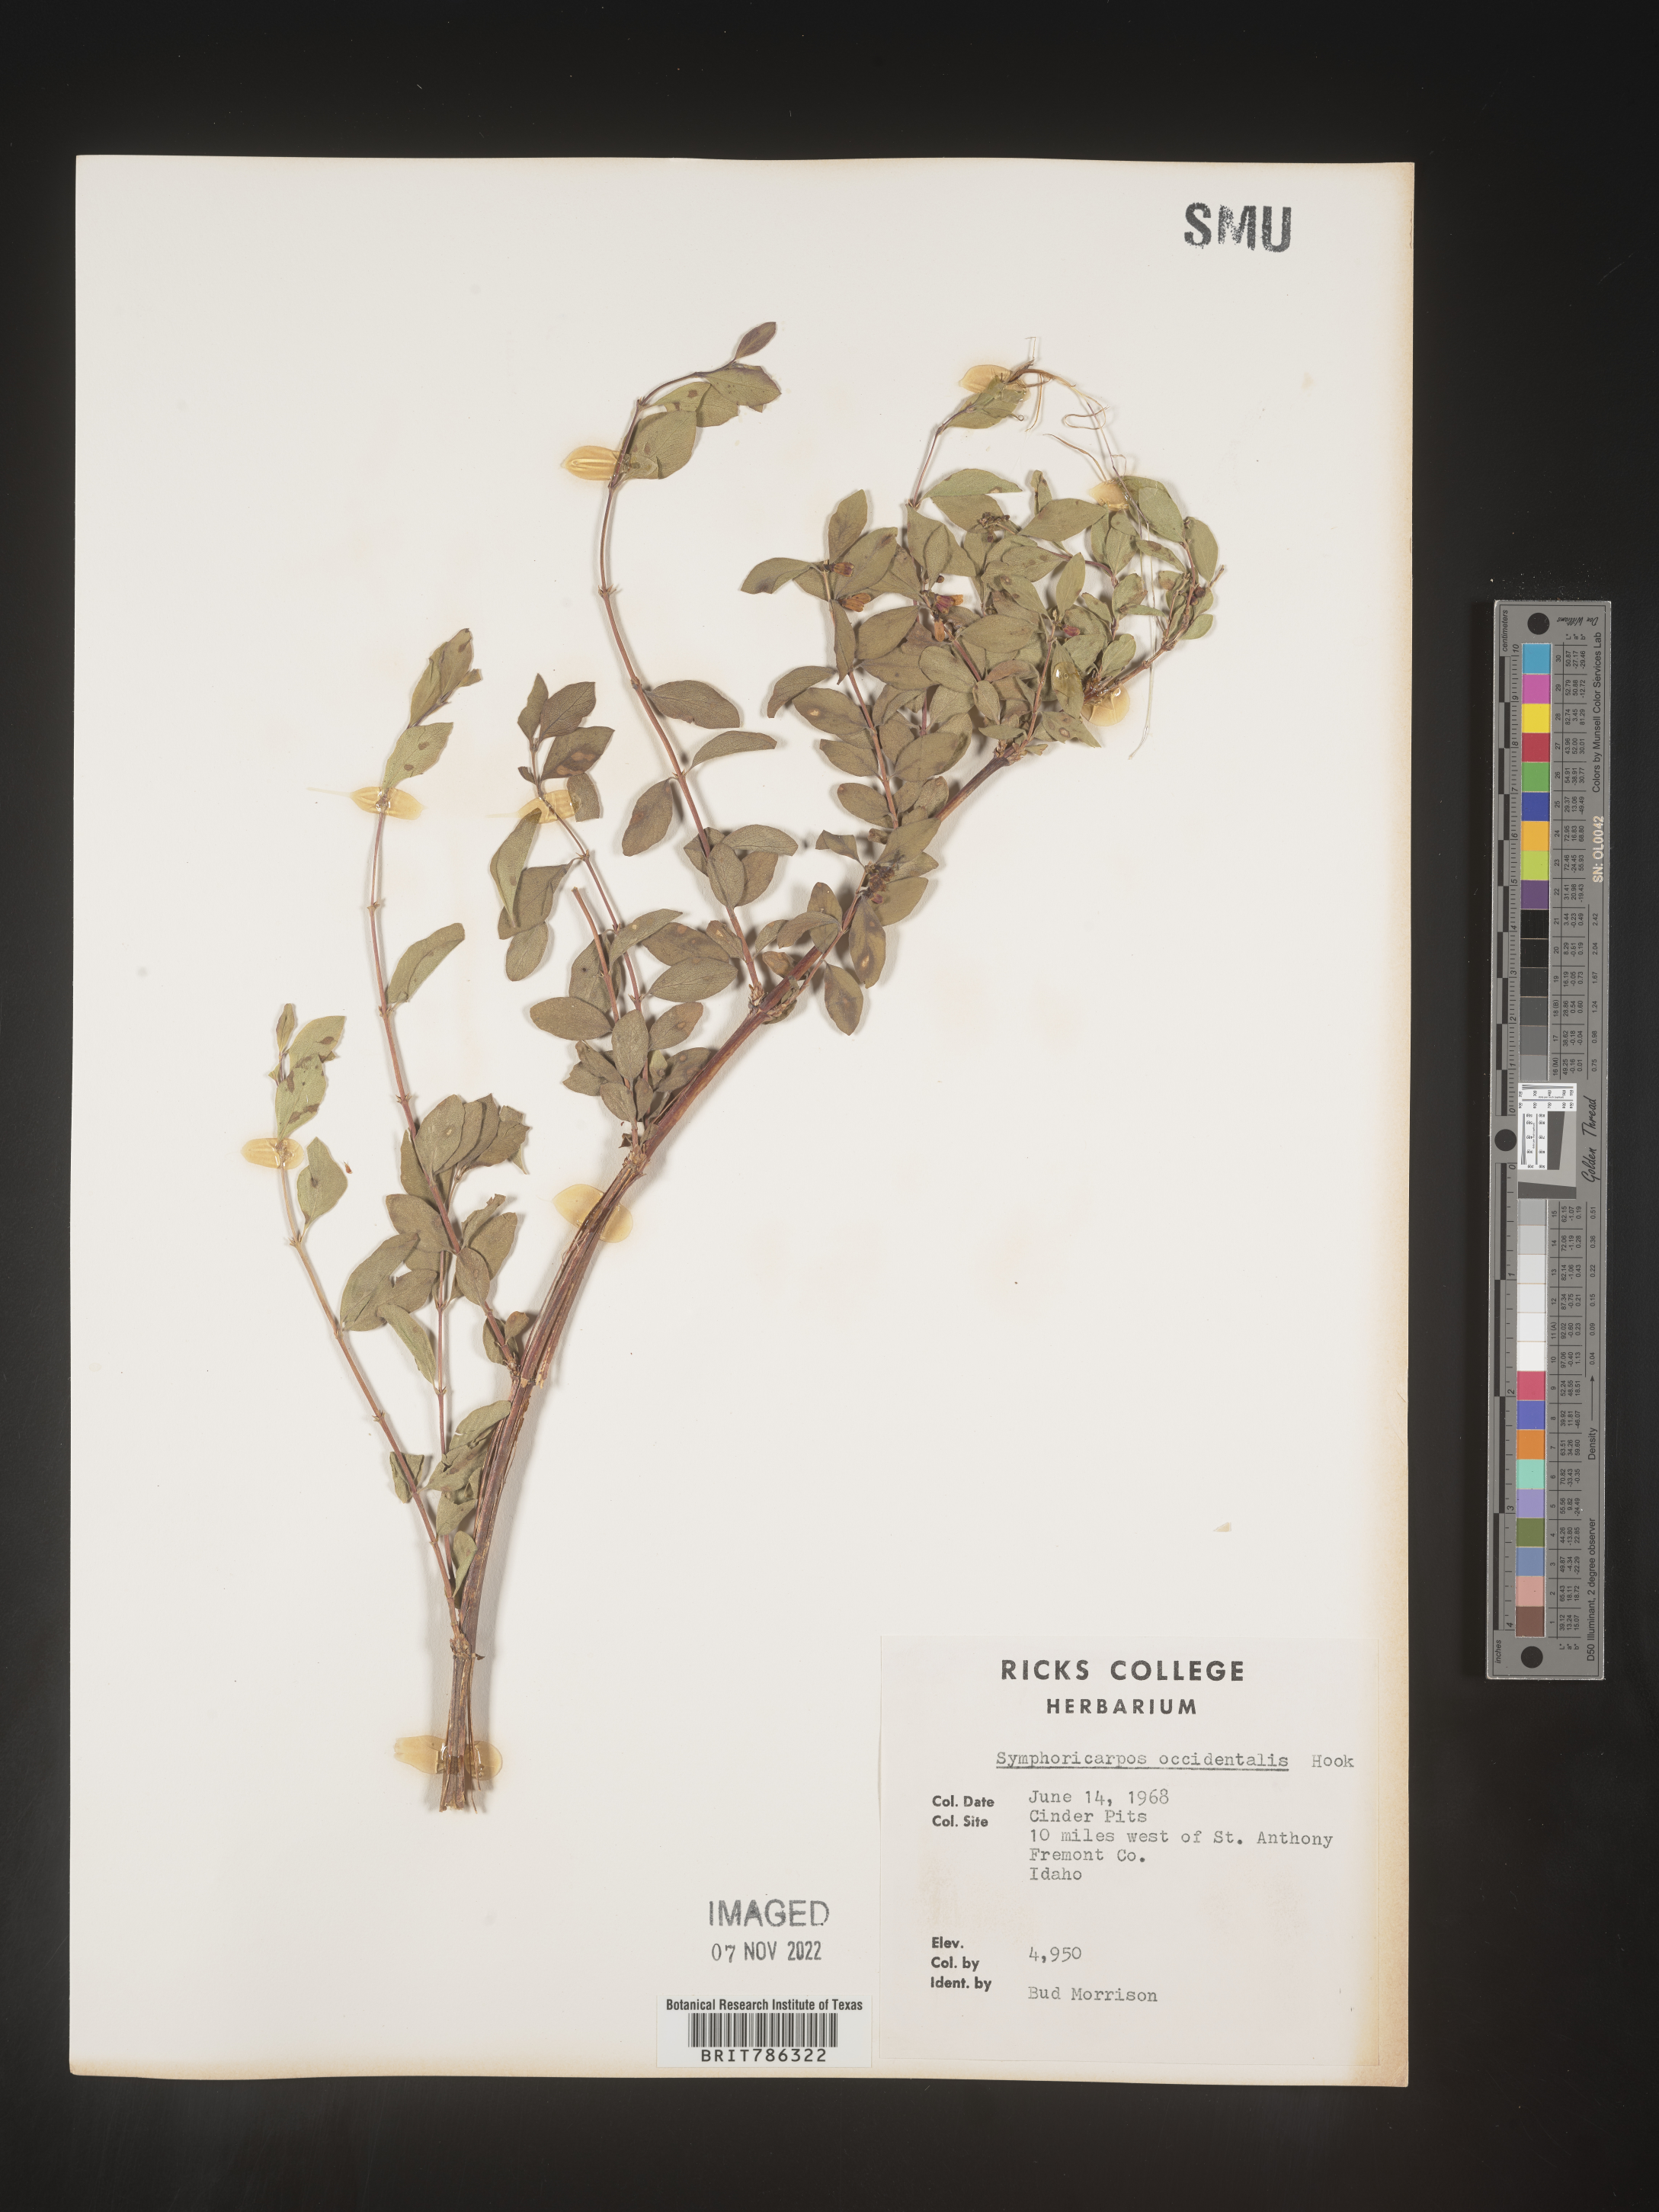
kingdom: Plantae
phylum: Tracheophyta
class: Magnoliopsida
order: Dipsacales
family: Caprifoliaceae
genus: Symphoricarpos
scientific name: Symphoricarpos occidentalis
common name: Wolfberry
